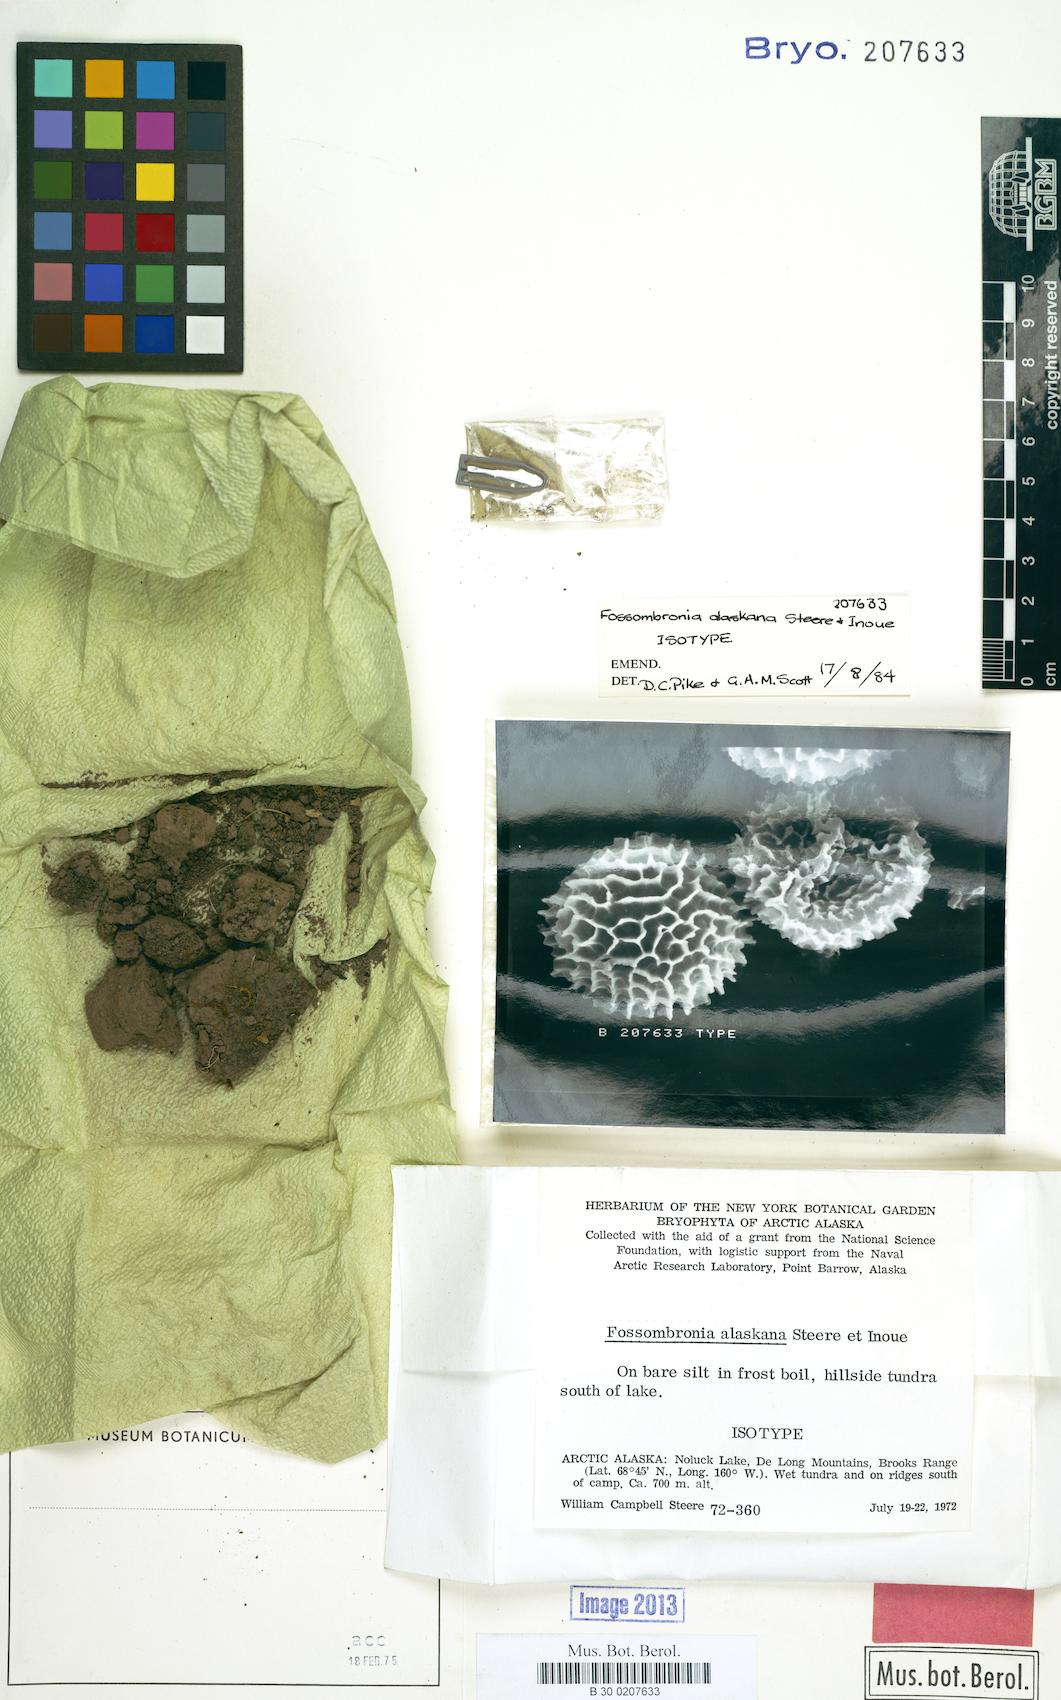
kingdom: Plantae
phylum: Marchantiophyta
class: Jungermanniopsida
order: Fossombroniales
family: Fossombroniaceae
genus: Fossombronia
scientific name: Fossombronia alaskana
